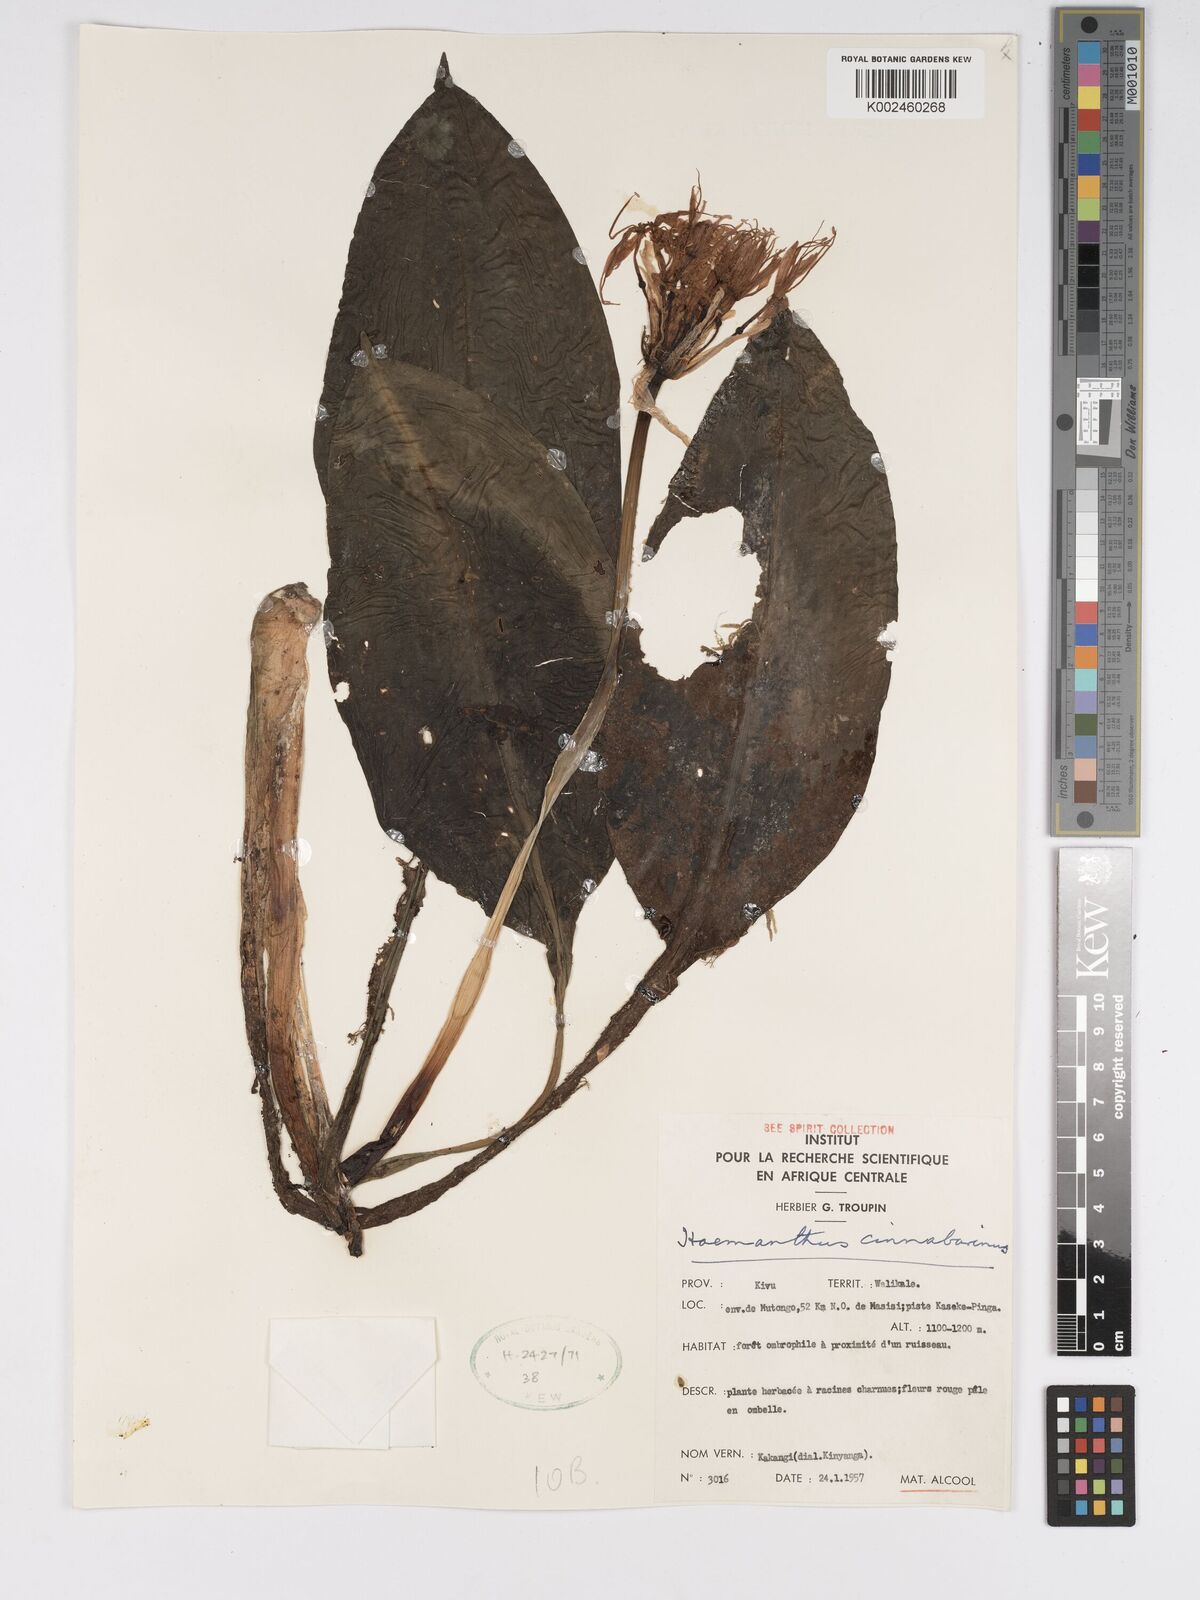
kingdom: Plantae
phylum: Tracheophyta
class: Liliopsida
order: Asparagales
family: Amaryllidaceae
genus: Scadoxus
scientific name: Scadoxus cinnabarinus
